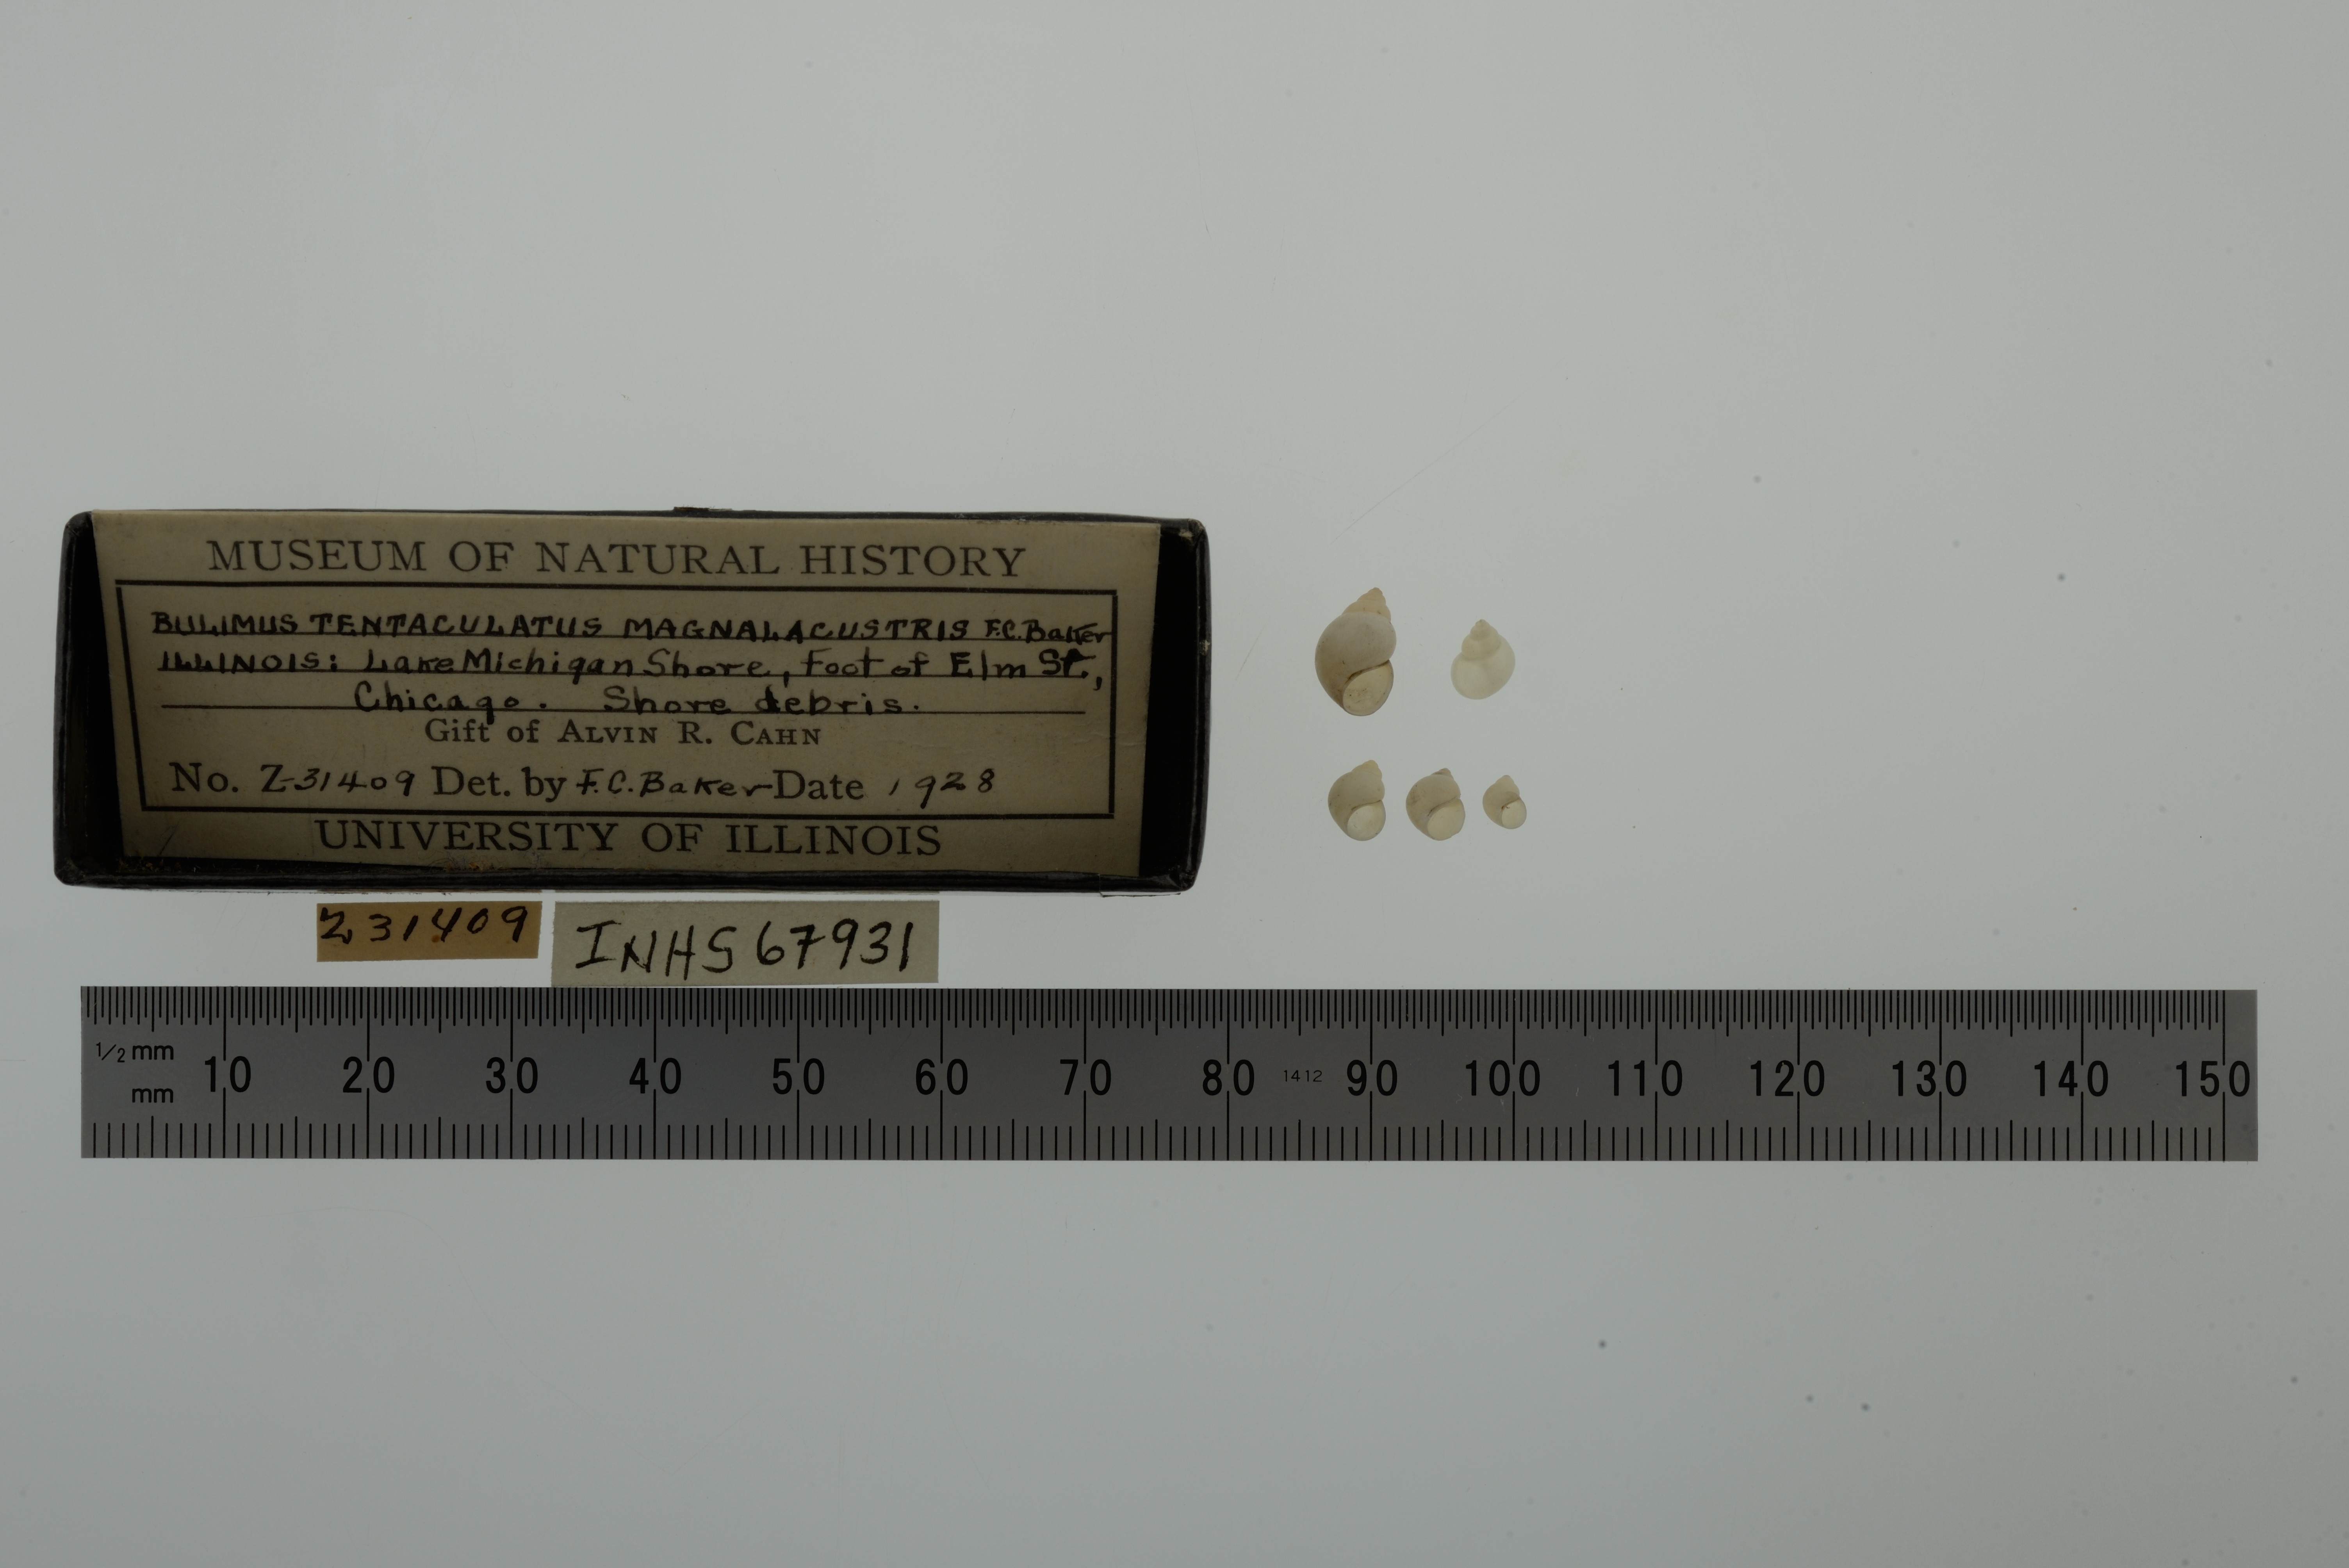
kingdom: Animalia
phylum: Mollusca
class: Gastropoda
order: Littorinimorpha
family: Bithyniidae
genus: Bithynia
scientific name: Bithynia tentaculata
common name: Common bithynia
